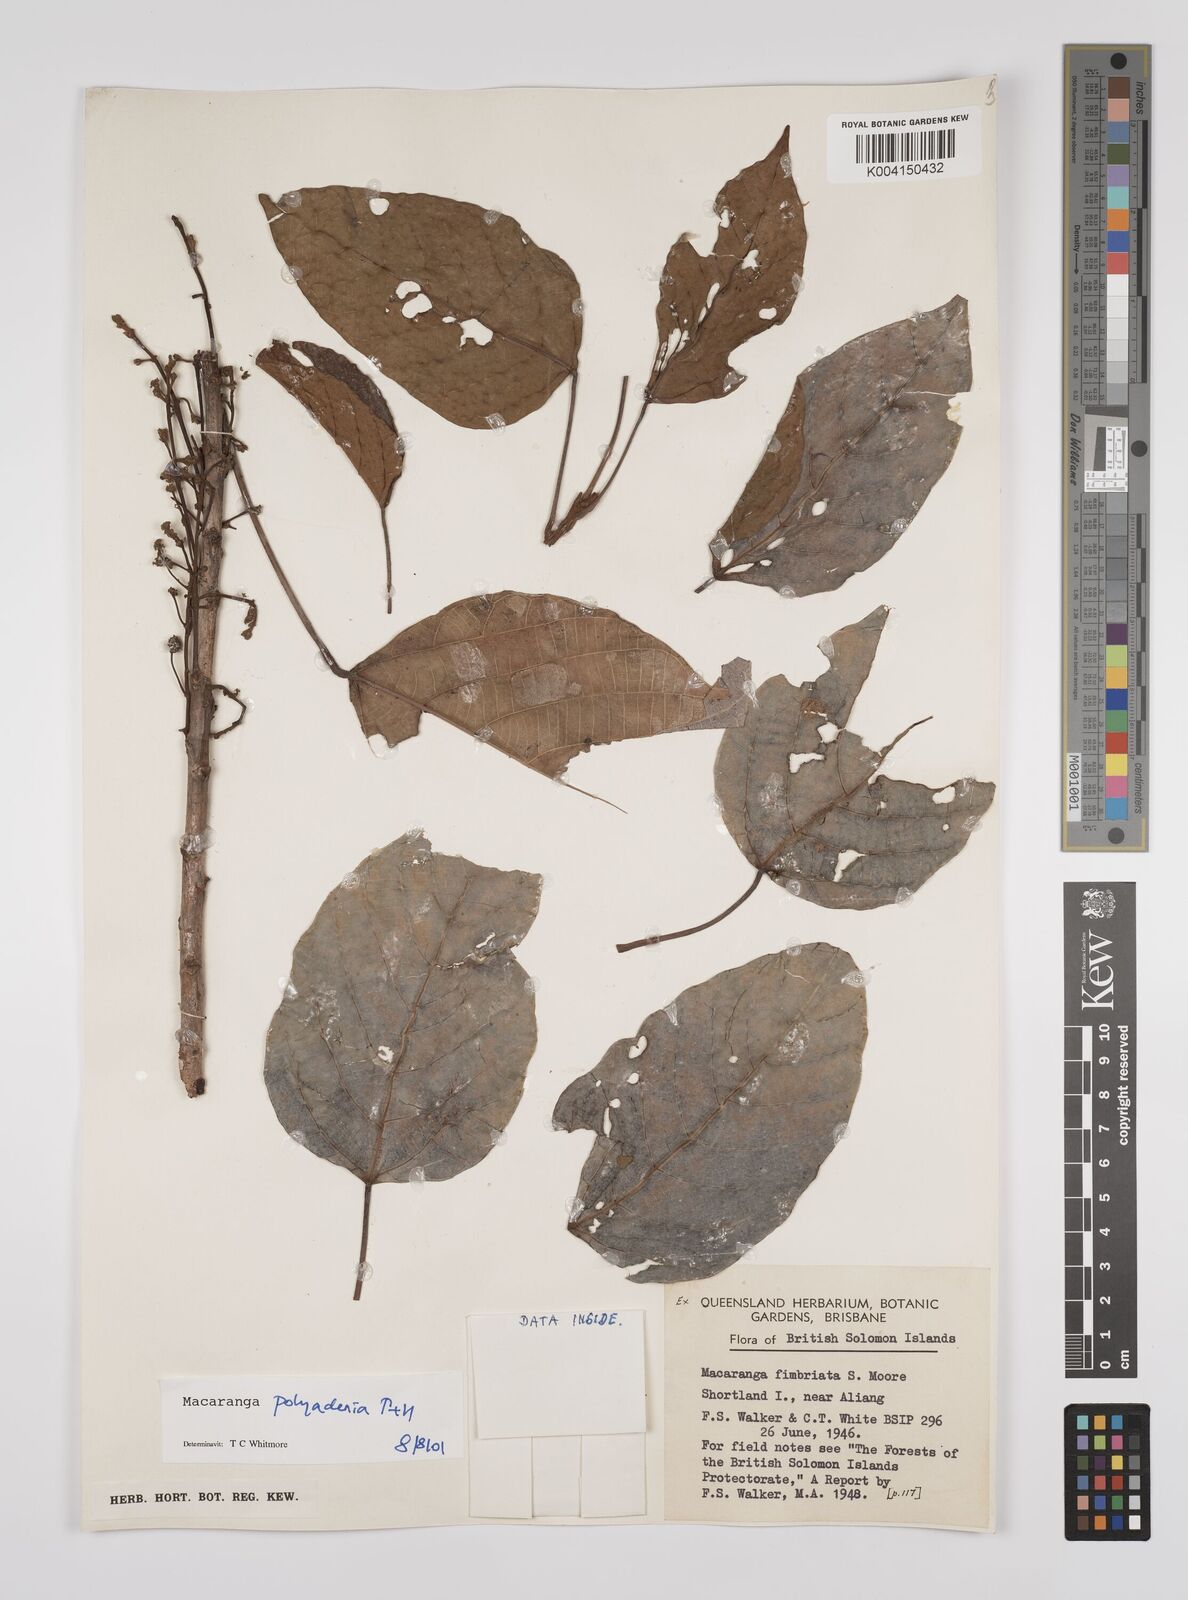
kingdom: Plantae
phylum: Tracheophyta
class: Magnoliopsida
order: Malpighiales
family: Euphorbiaceae
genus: Macaranga
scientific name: Macaranga polyadenia
